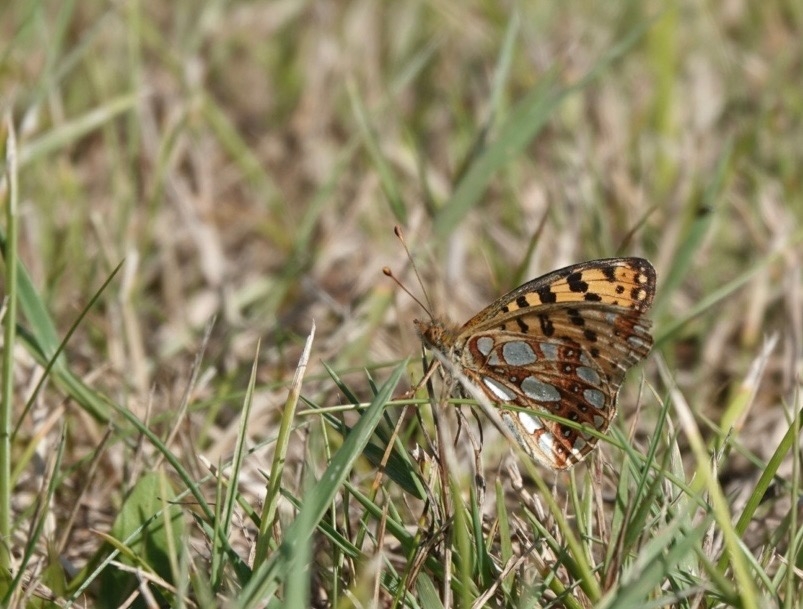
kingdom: Animalia
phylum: Arthropoda
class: Insecta
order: Lepidoptera
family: Nymphalidae
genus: Issoria
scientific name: Issoria lathonia
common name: Storplettet perlemorsommerfugl
